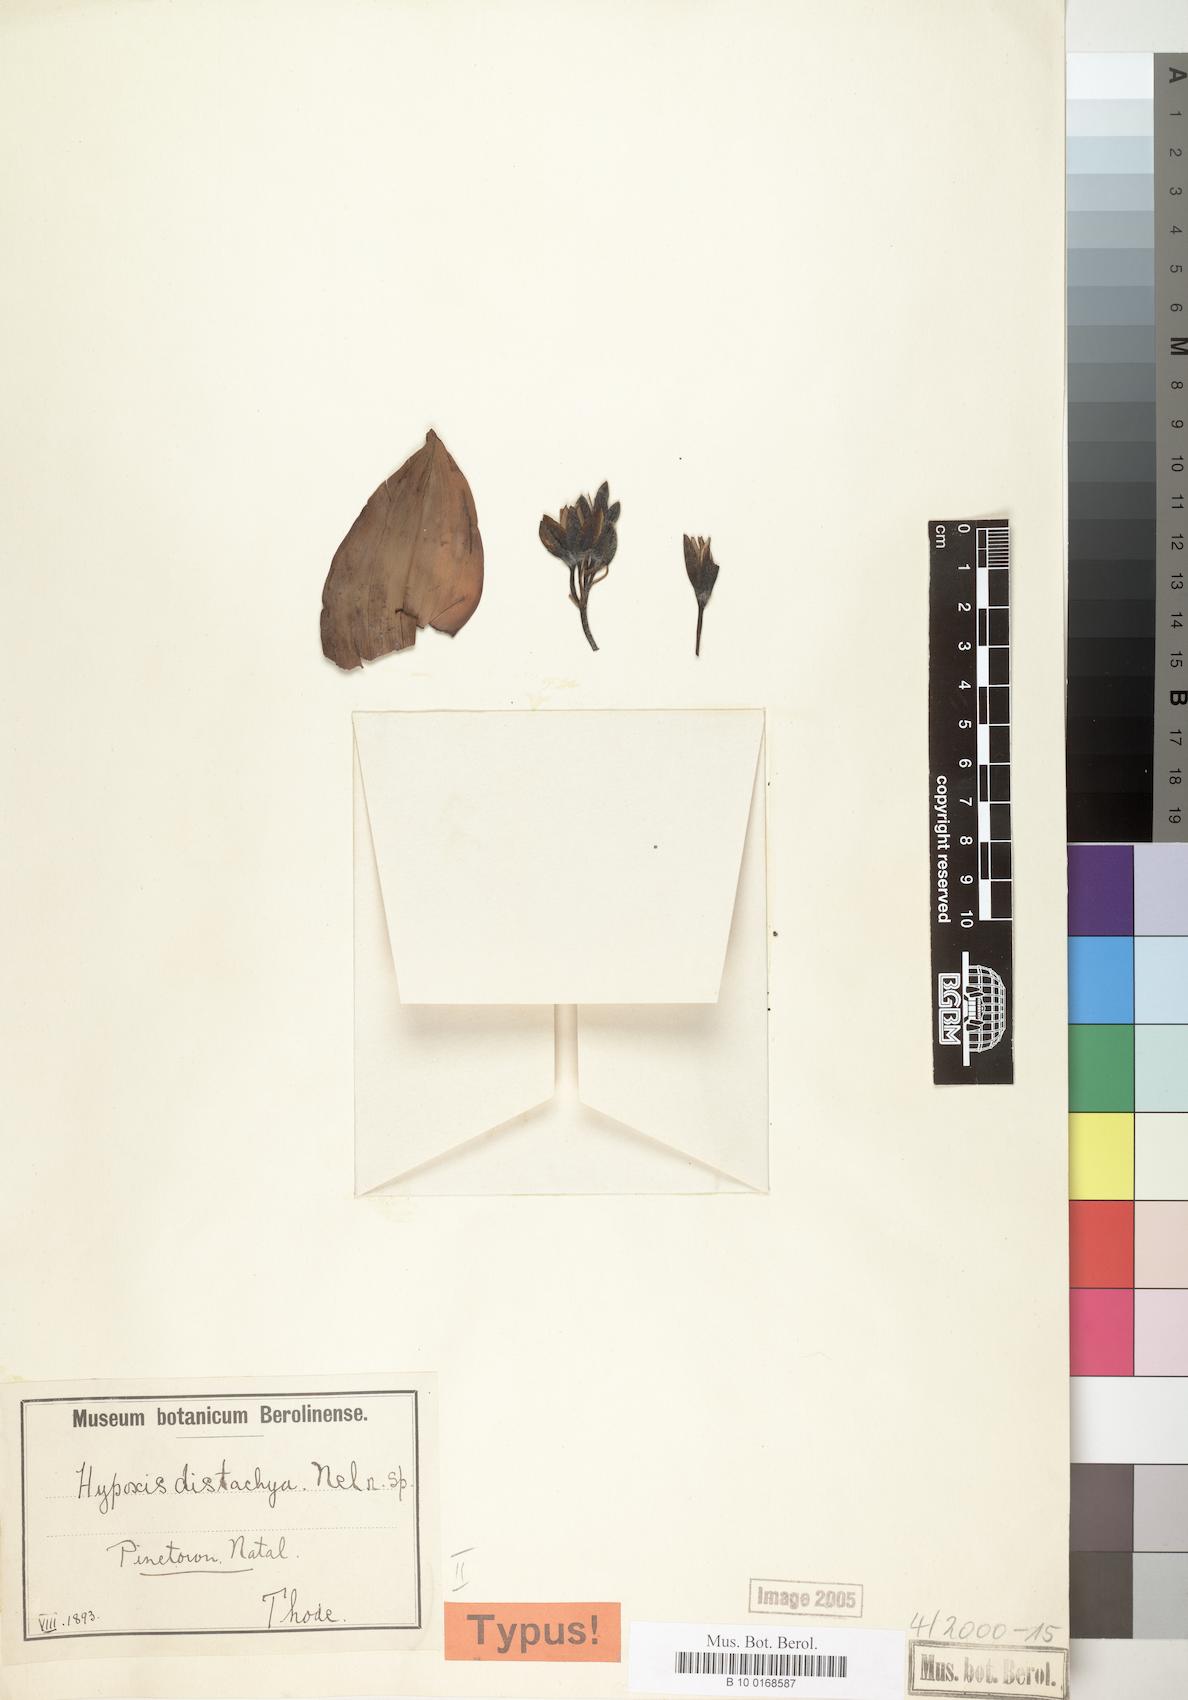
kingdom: Plantae
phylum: Tracheophyta
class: Liliopsida
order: Asparagales
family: Hypoxidaceae
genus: Hypoxis
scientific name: Hypoxis colchicifolia
